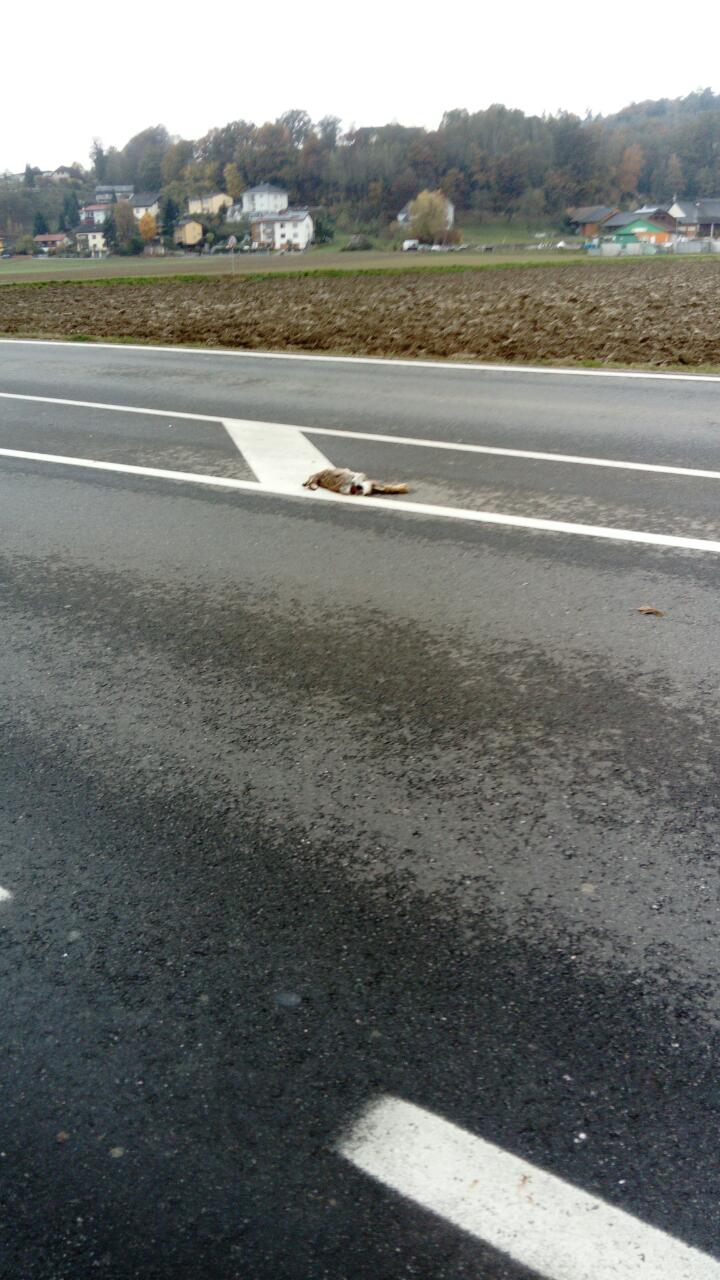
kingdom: Animalia
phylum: Chordata
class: Mammalia
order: Lagomorpha
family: Leporidae
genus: Lepus
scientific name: Lepus europaeus
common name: European hare
